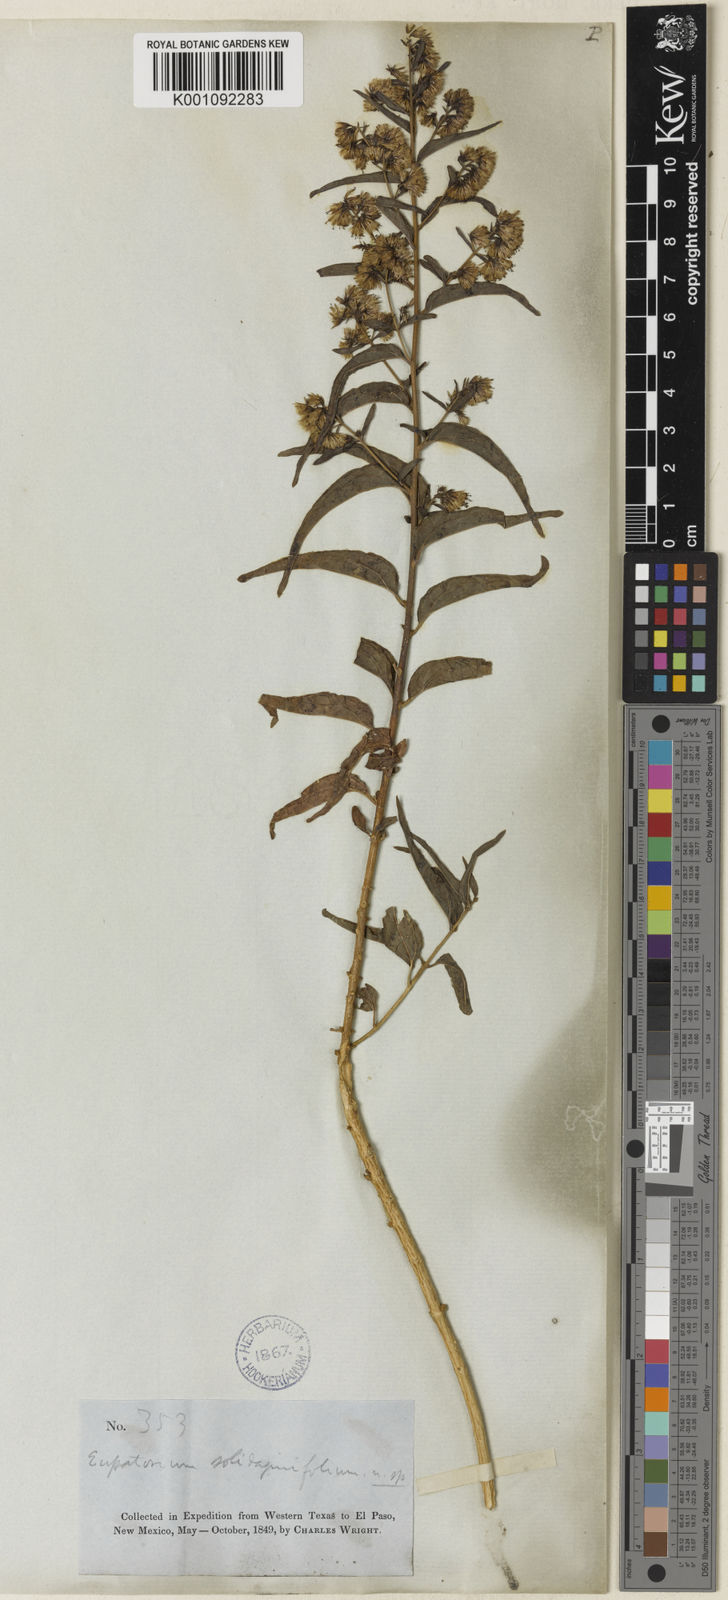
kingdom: Plantae
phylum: Tracheophyta
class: Magnoliopsida
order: Asterales
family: Asteraceae
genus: Koanophyllon
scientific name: Koanophyllon solidaginifolium
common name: Shrubby umbrella thoroughwort
